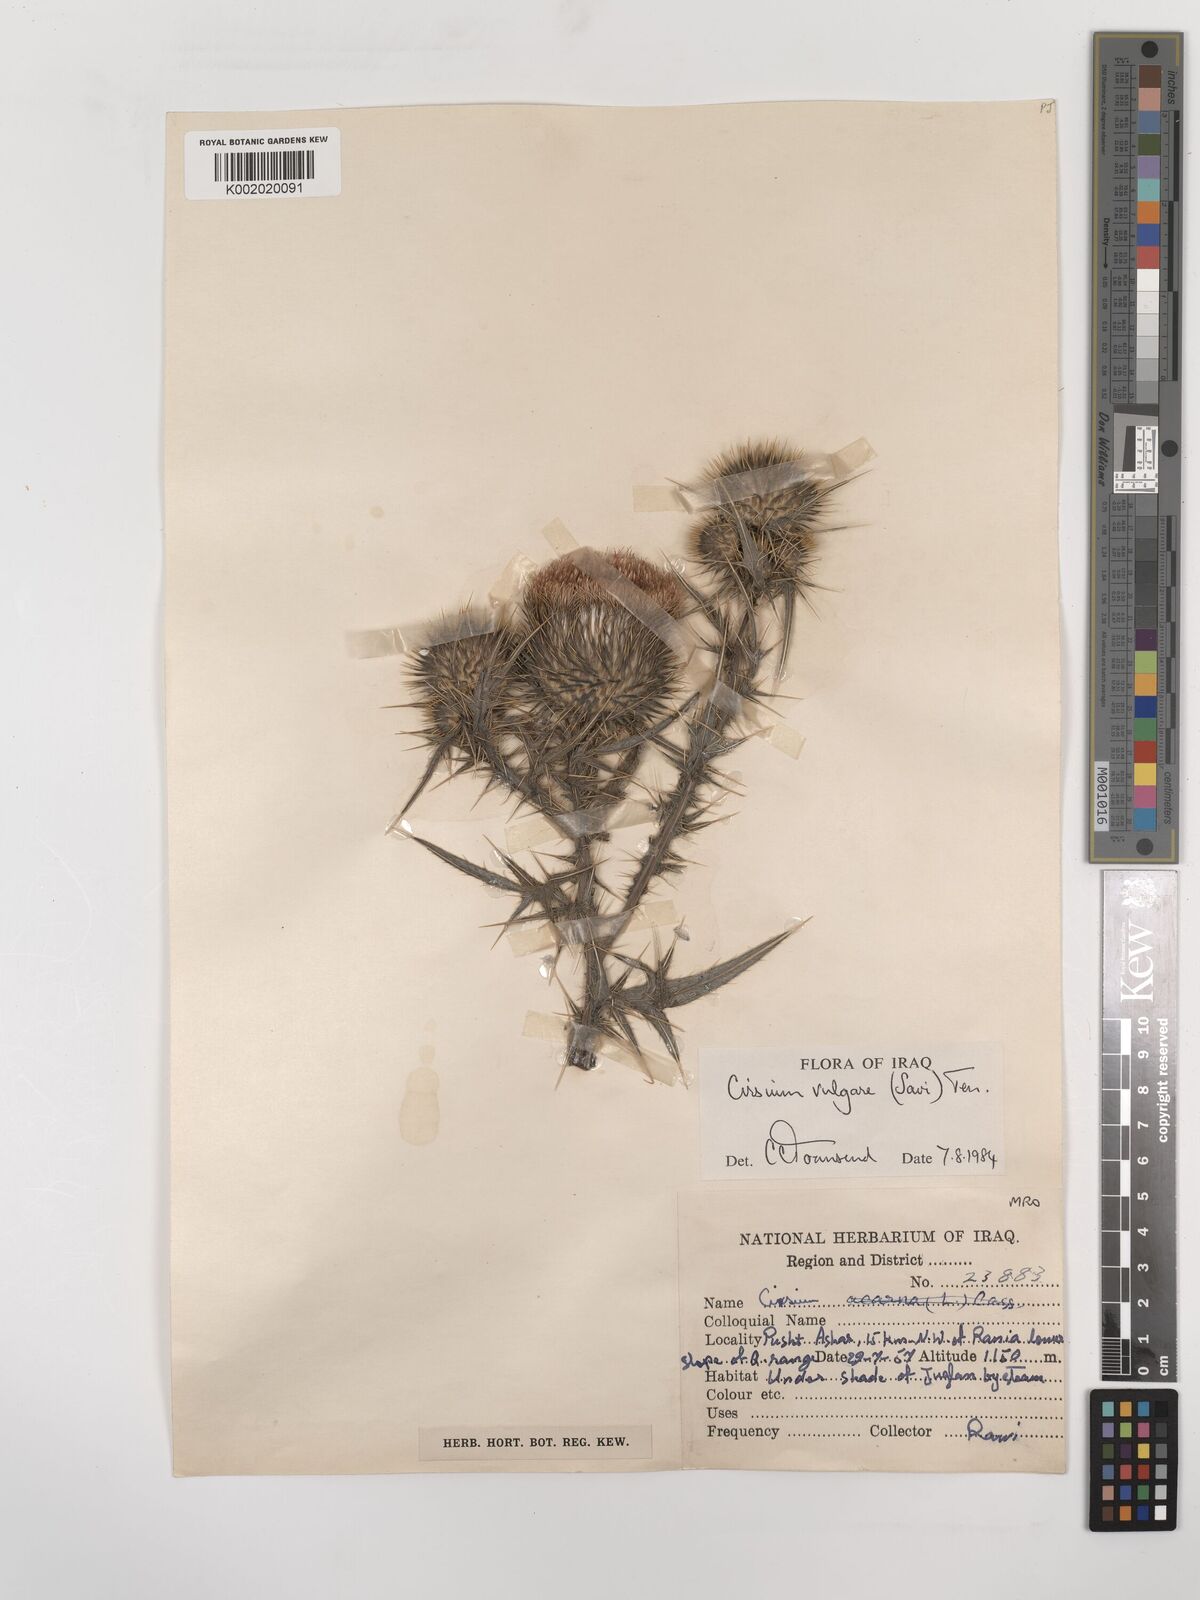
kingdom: Plantae
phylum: Tracheophyta
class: Magnoliopsida
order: Asterales
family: Asteraceae
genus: Cirsium
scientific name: Cirsium vulgare
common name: Bull thistle
